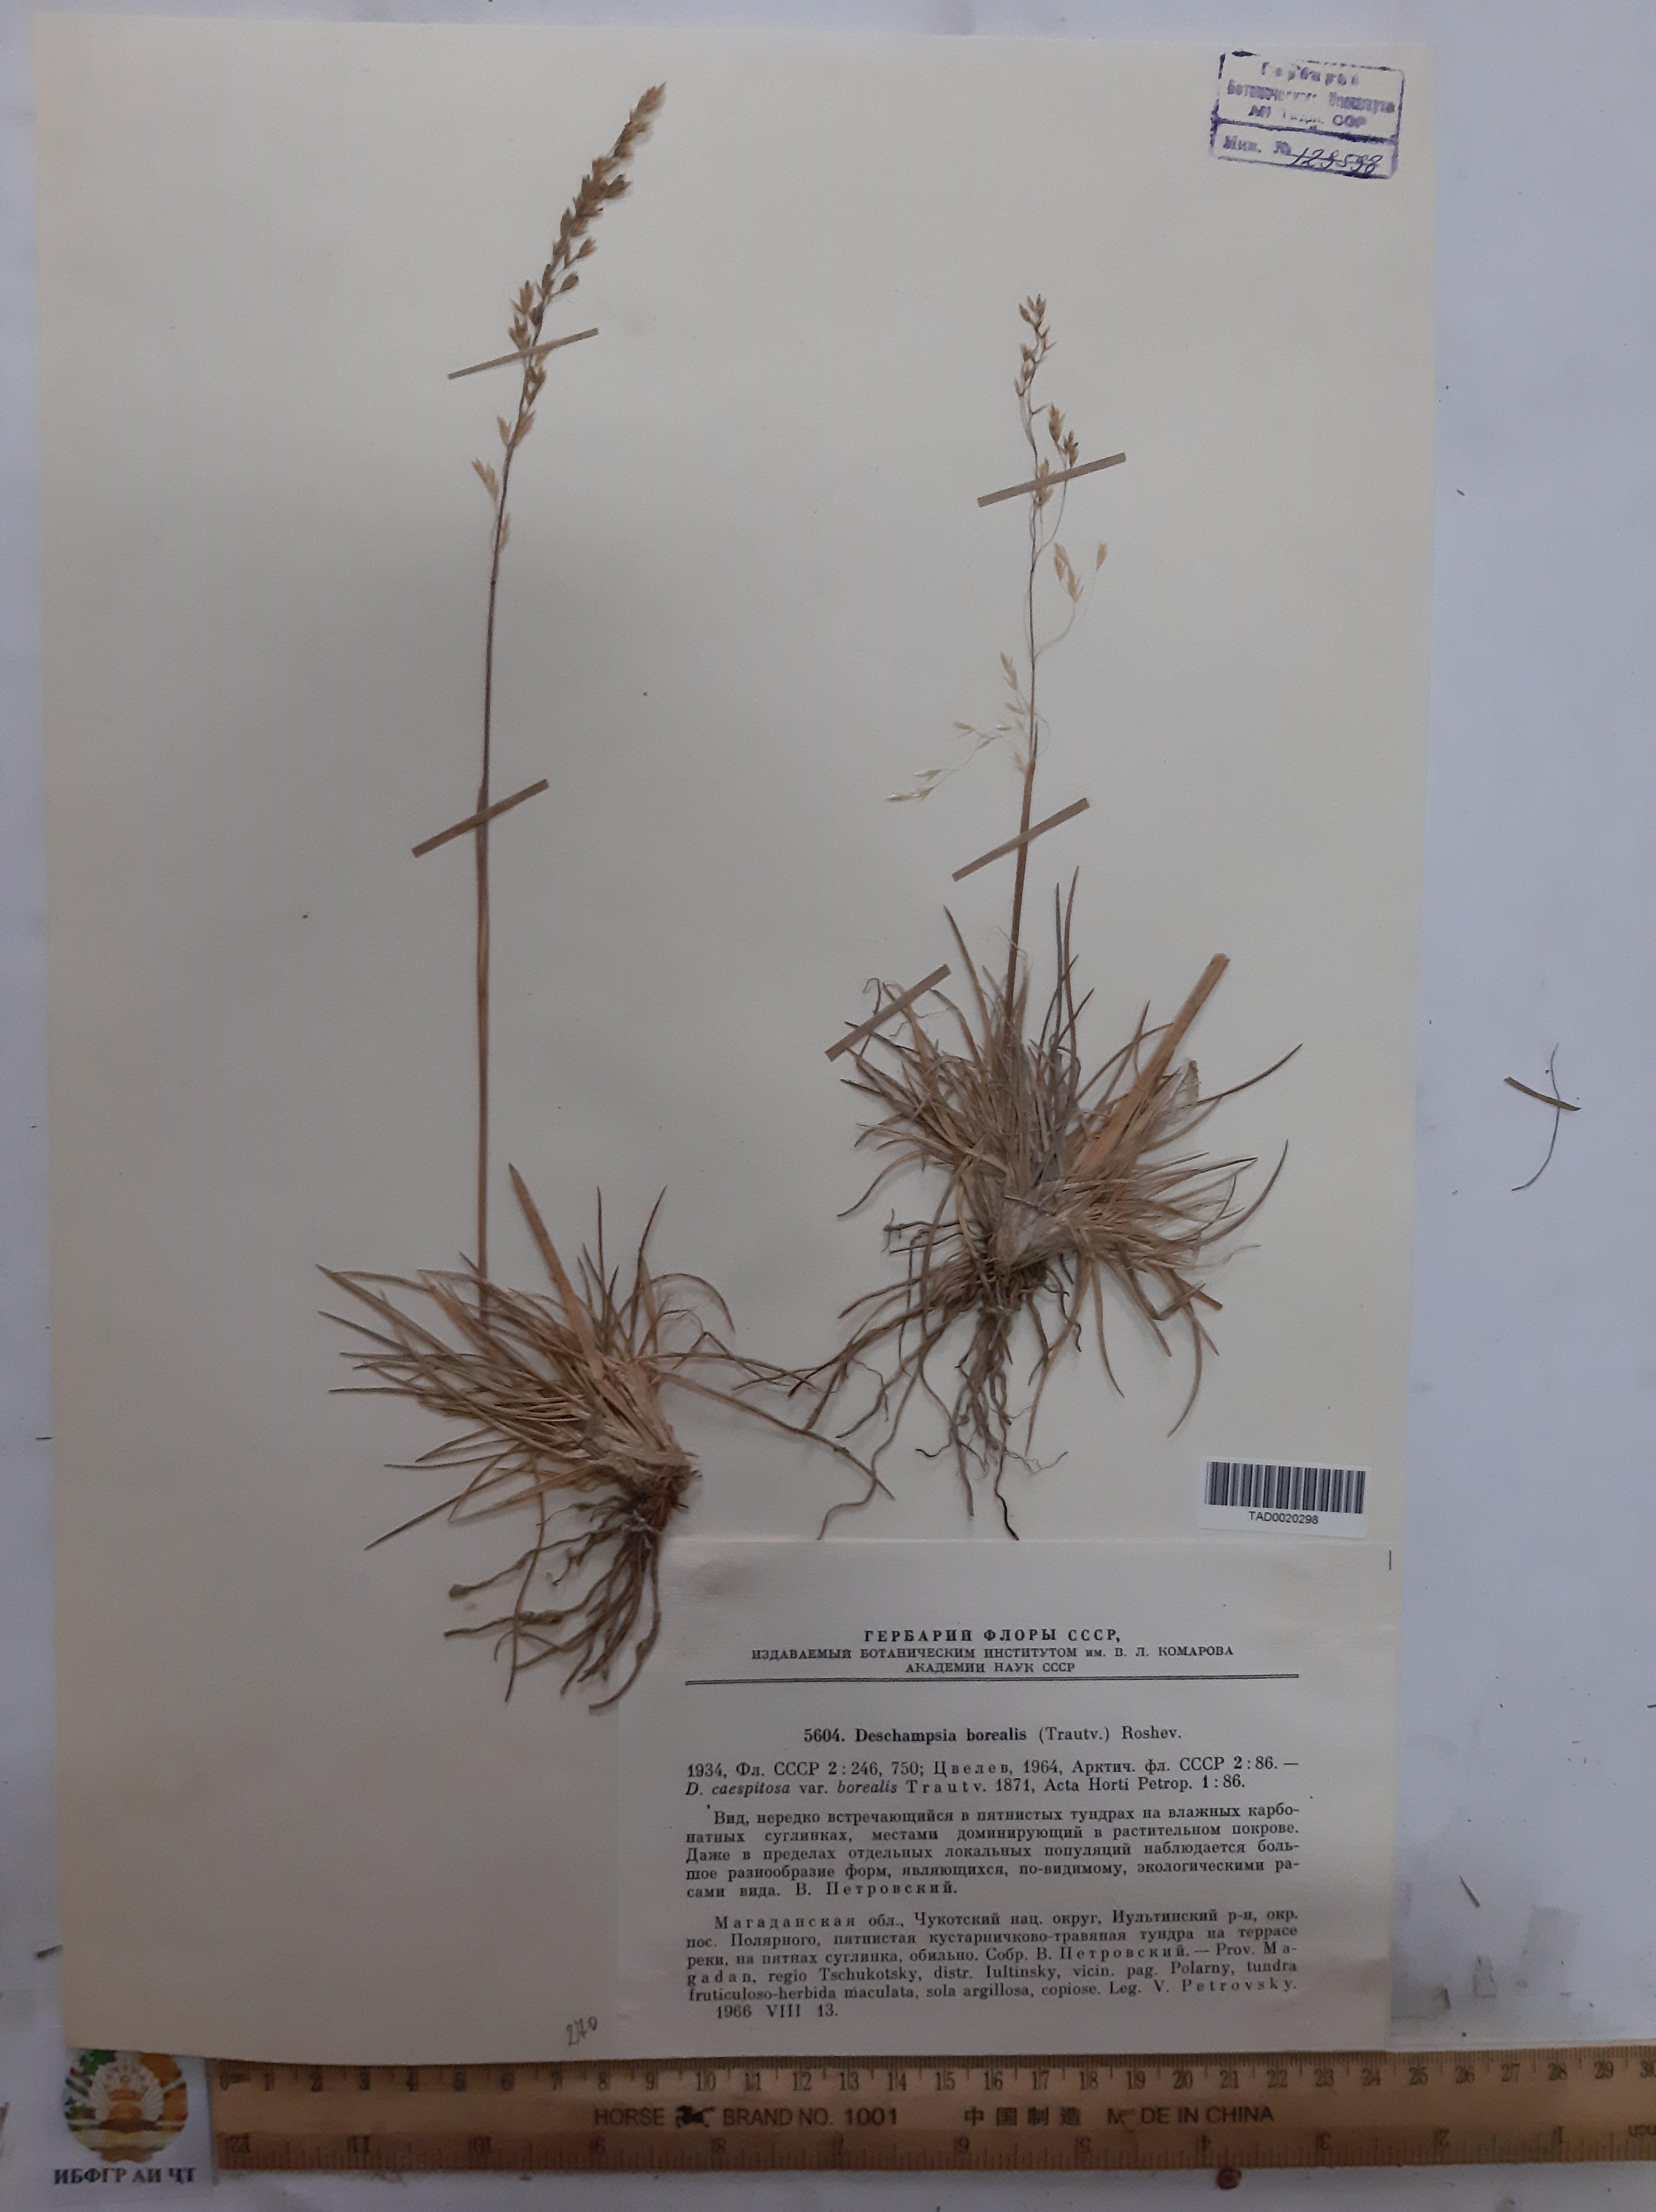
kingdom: Plantae
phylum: Tracheophyta
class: Liliopsida
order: Poales
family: Poaceae
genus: Deschampsia
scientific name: Deschampsia cespitosa
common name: Tufted hair-grass
